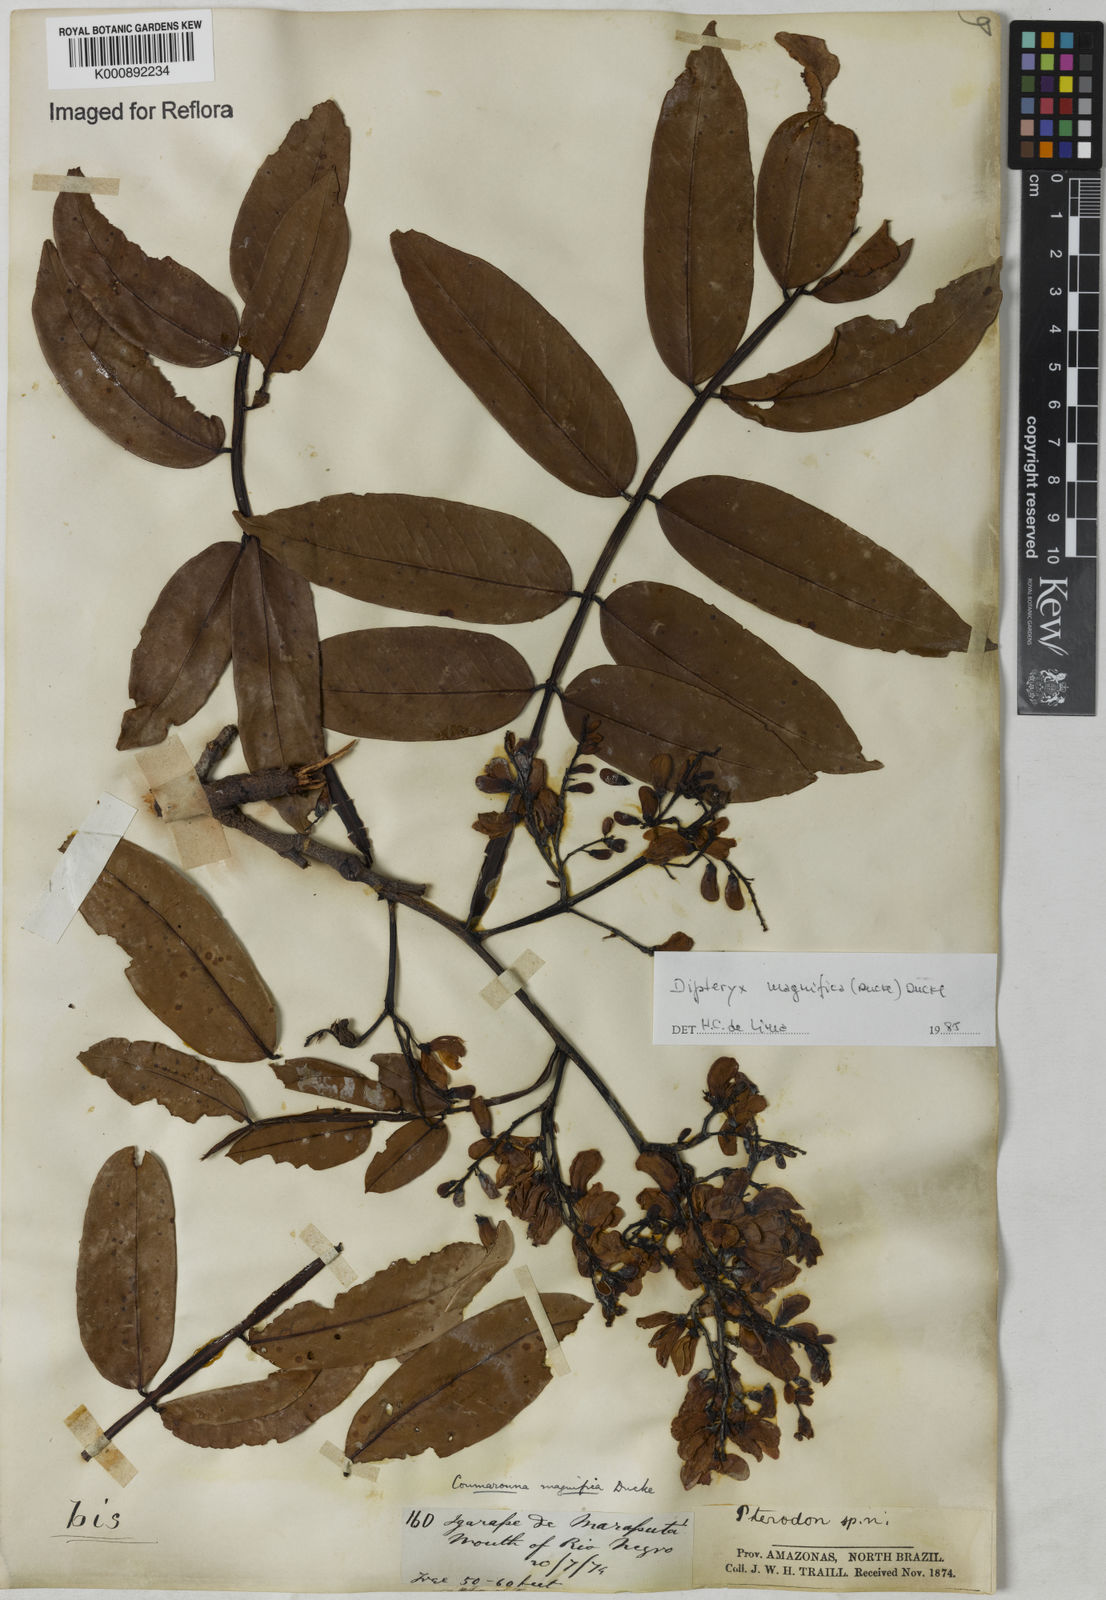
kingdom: Plantae
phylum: Tracheophyta
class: Magnoliopsida
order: Fabales
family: Fabaceae
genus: Dipteryx
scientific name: Dipteryx magnifica
